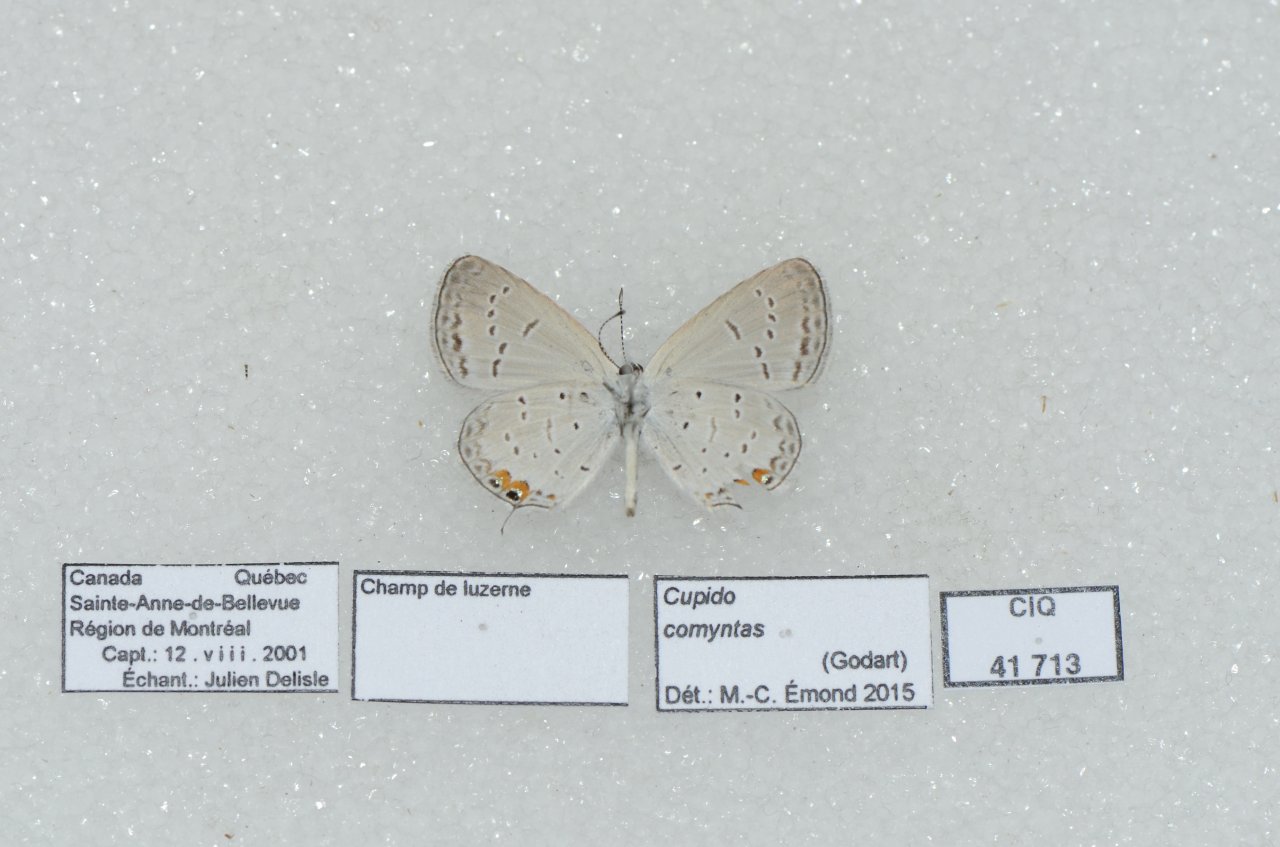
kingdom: Animalia
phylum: Arthropoda
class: Insecta
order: Lepidoptera
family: Lycaenidae
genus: Elkalyce
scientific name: Elkalyce comyntas
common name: Eastern Tailed-Blue
